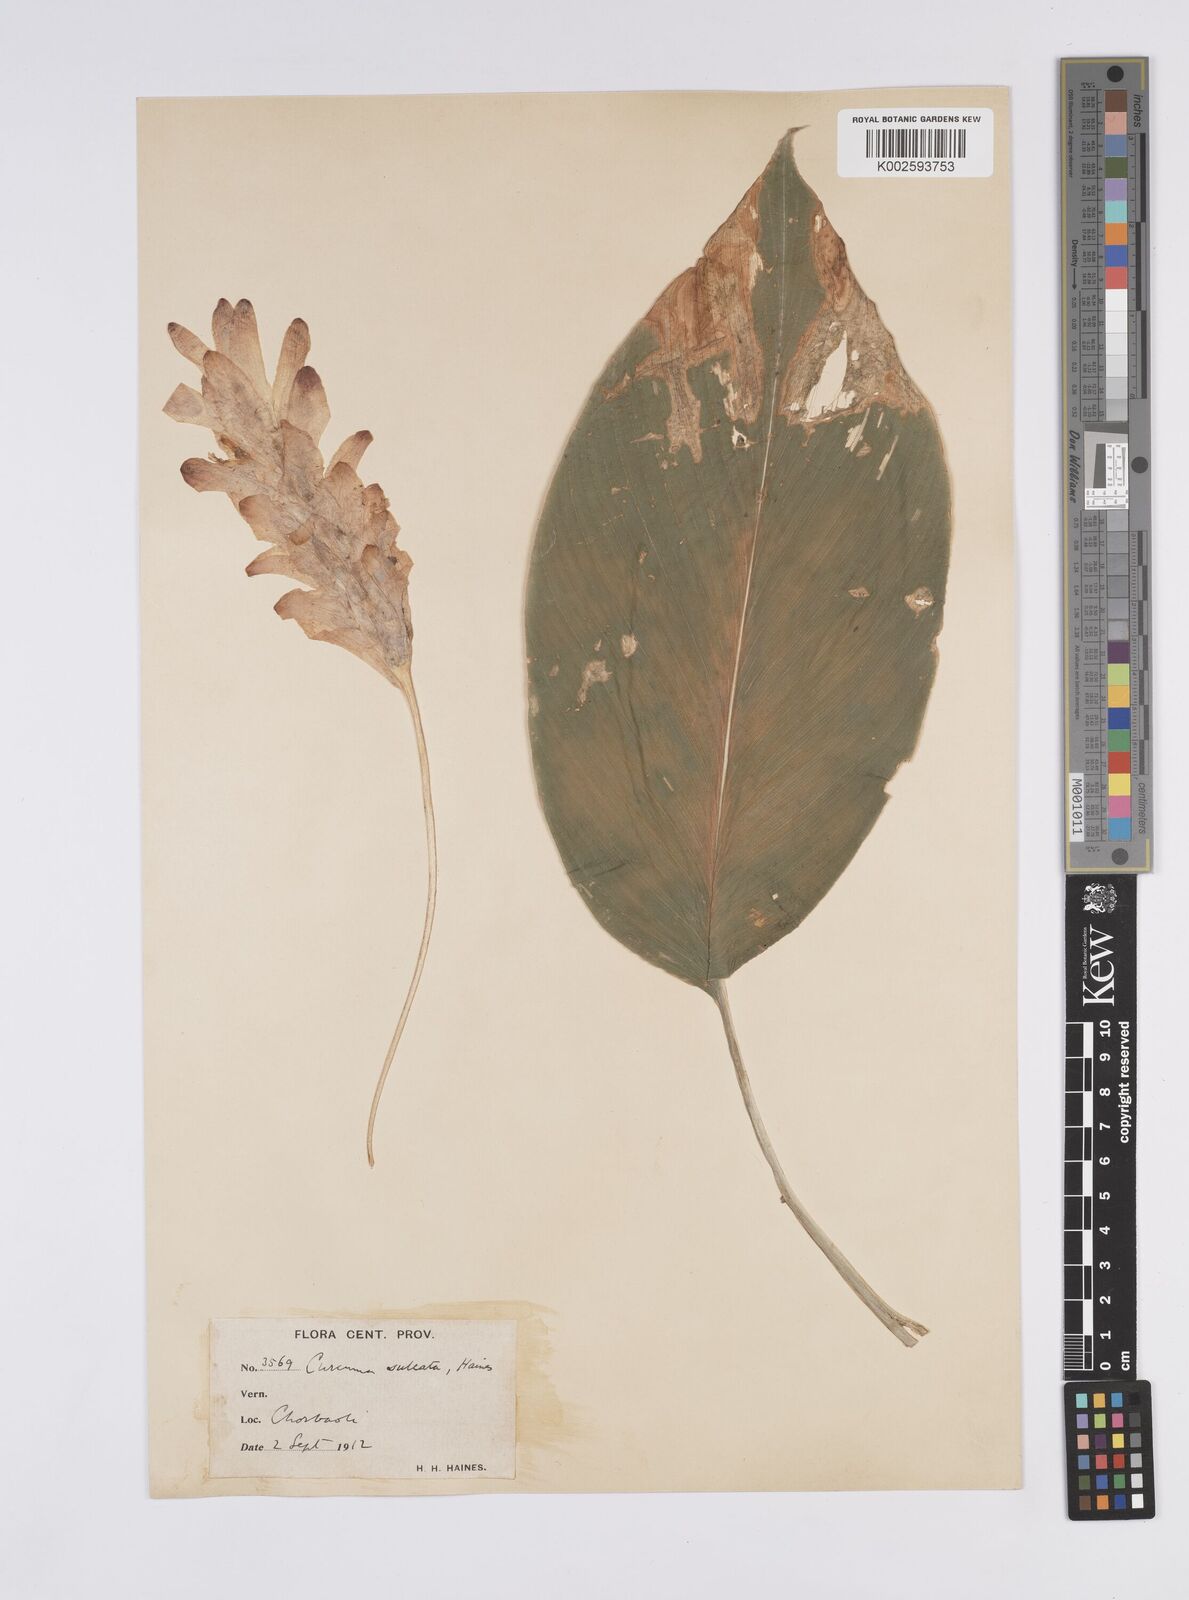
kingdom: Plantae
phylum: Tracheophyta
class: Liliopsida
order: Zingiberales
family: Zingiberaceae
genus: Curcuma
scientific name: Curcuma reclinata
